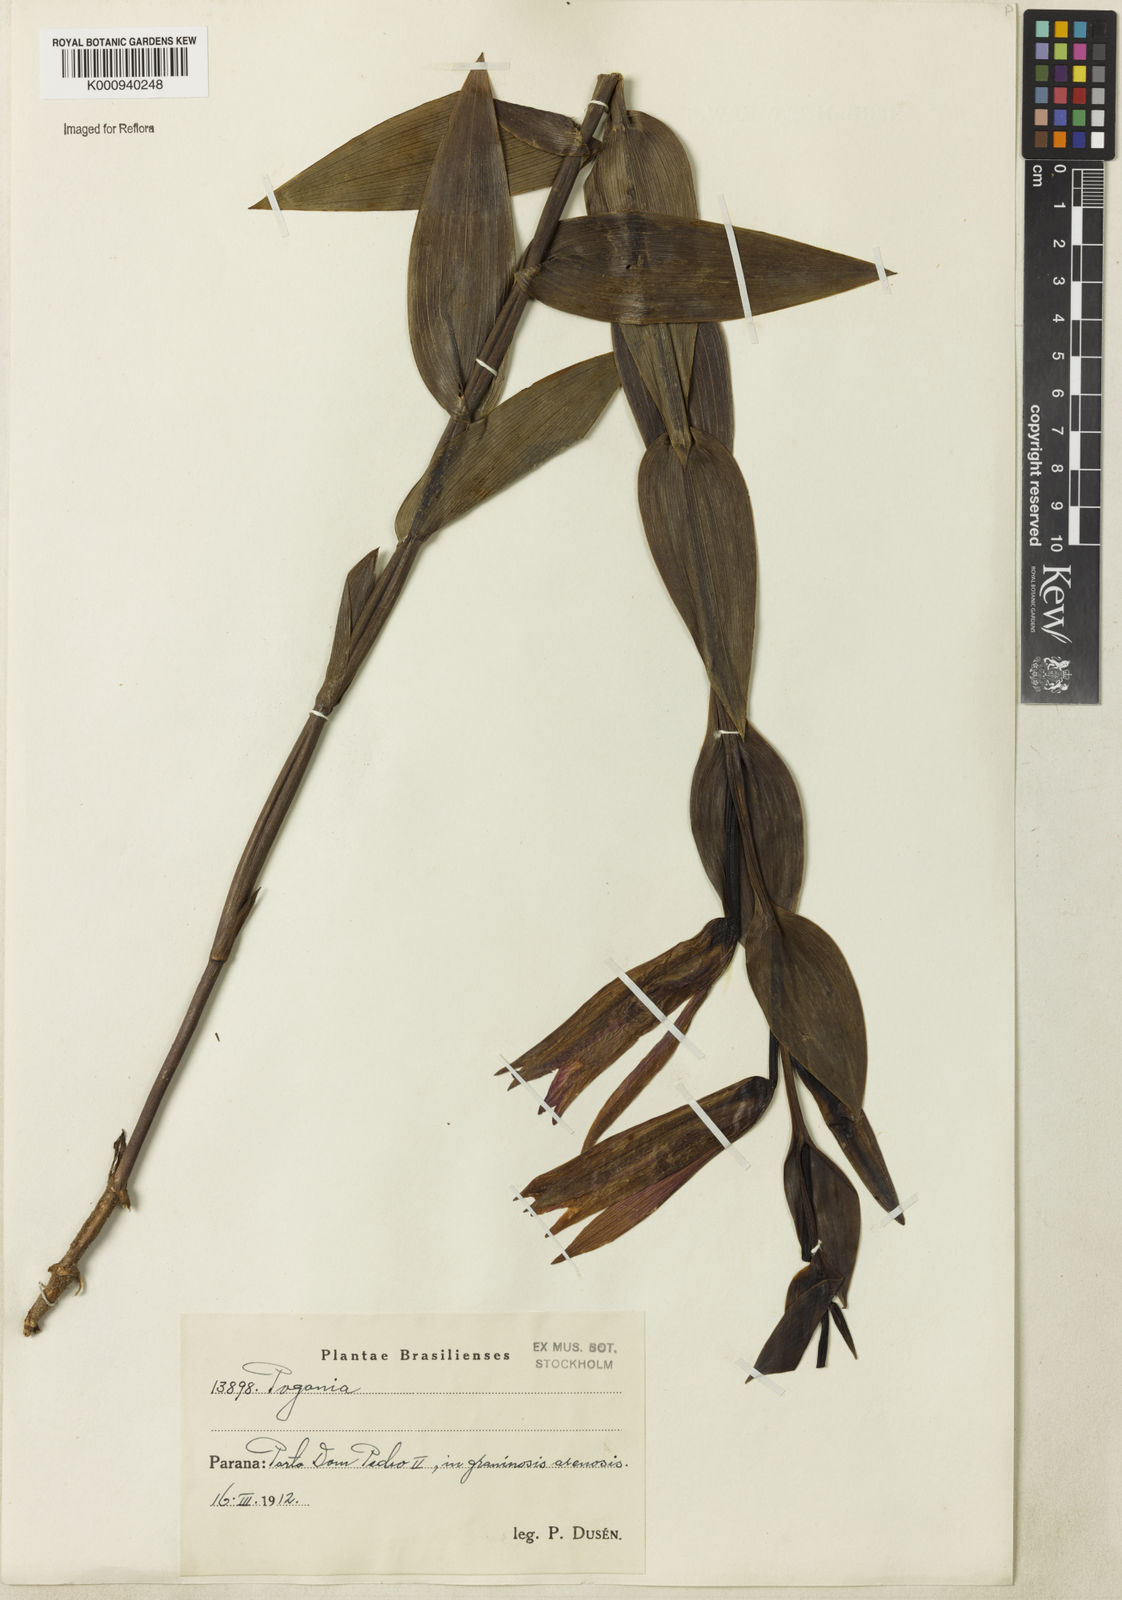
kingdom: Plantae
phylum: Tracheophyta
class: Liliopsida
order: Asparagales
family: Orchidaceae
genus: Cleistes
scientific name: Cleistes
